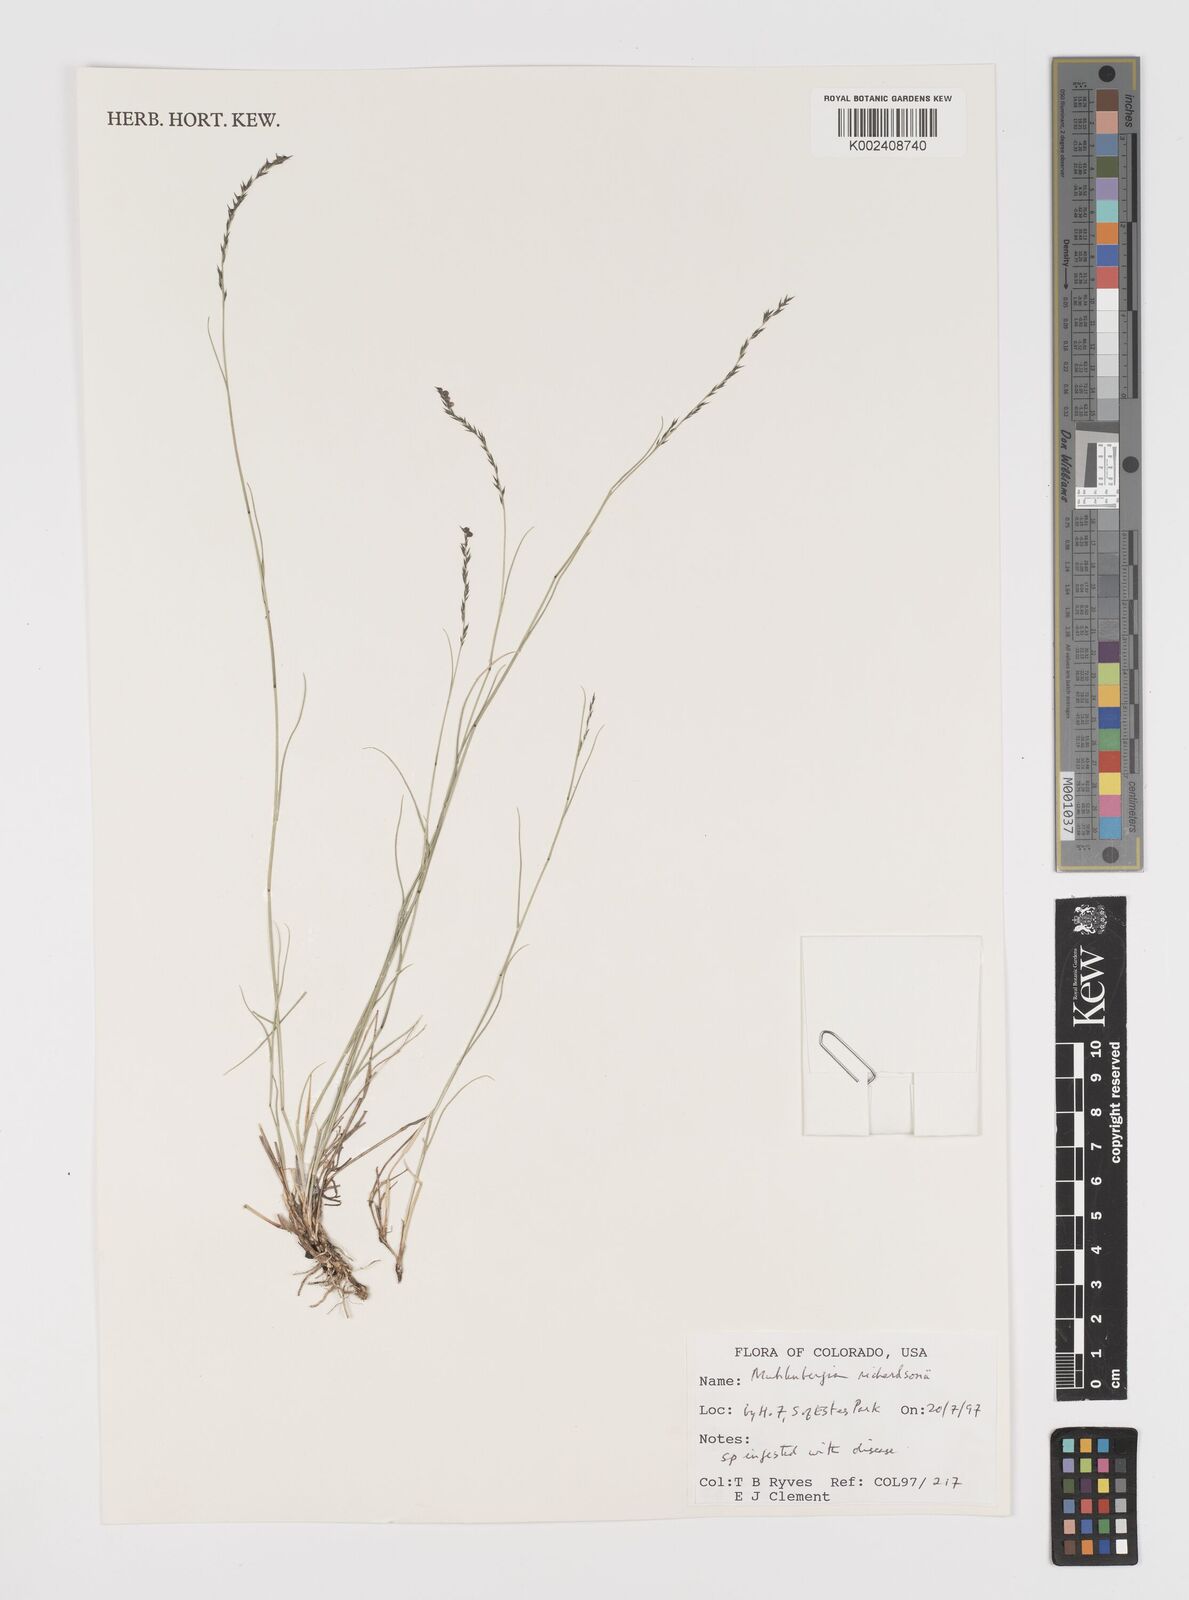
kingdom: Plantae
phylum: Tracheophyta
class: Liliopsida
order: Poales
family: Poaceae
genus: Muhlenbergia
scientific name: Muhlenbergia richardsonis
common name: Mat muhly
